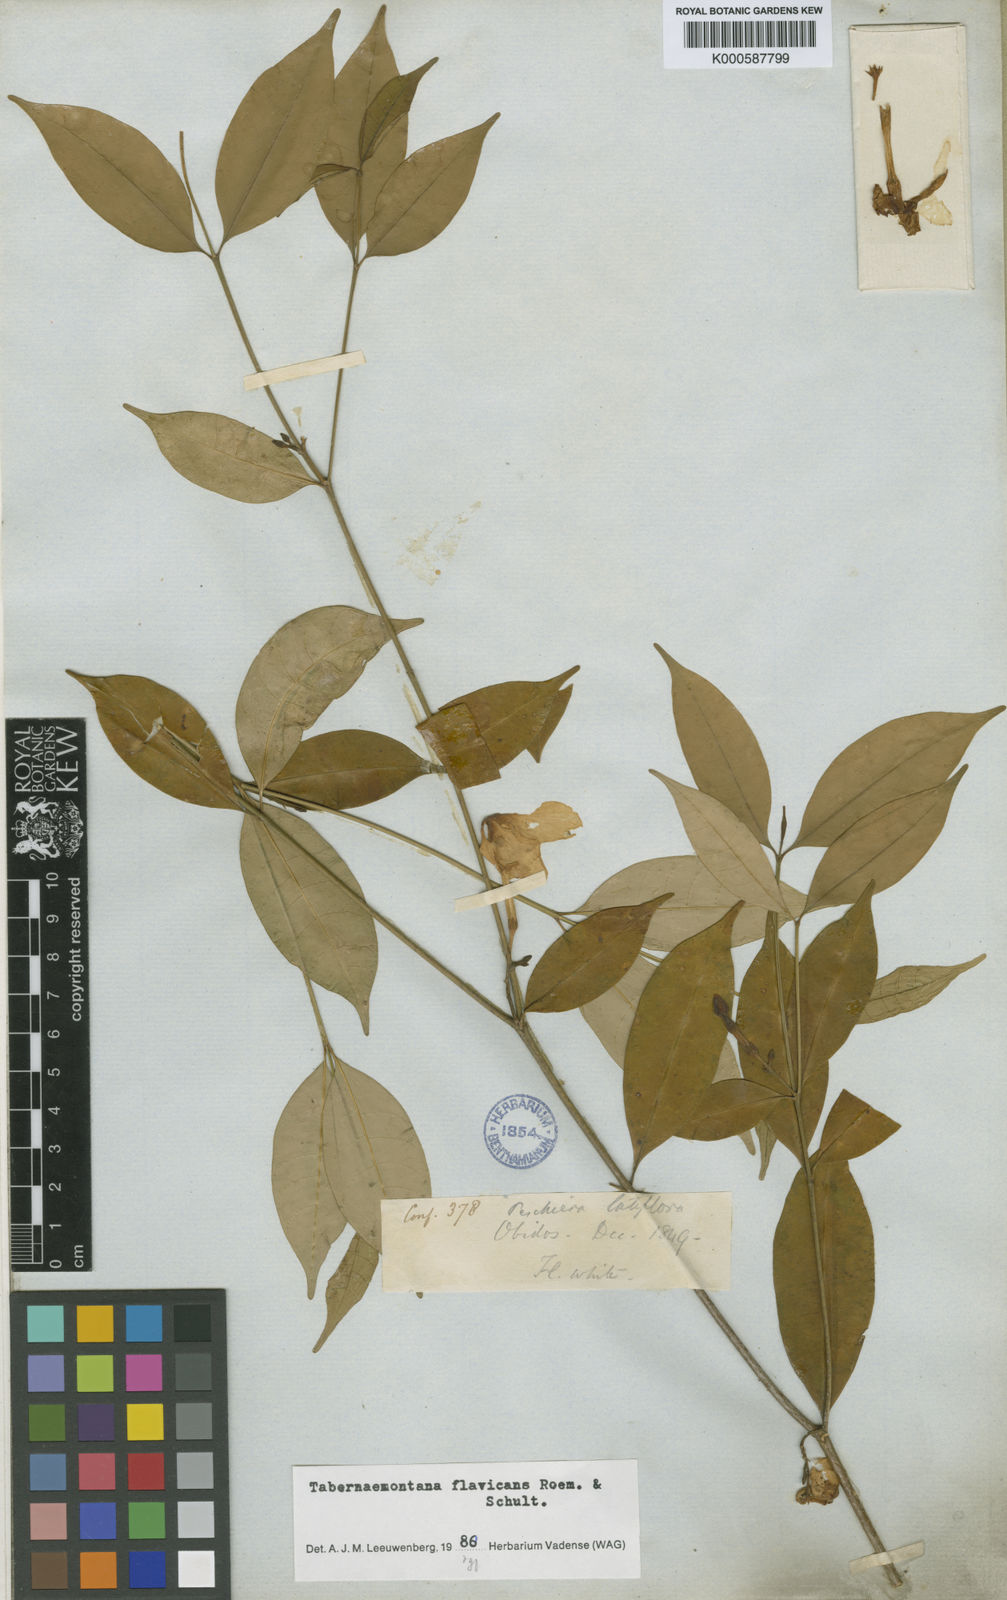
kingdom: Plantae
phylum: Tracheophyta
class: Magnoliopsida
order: Gentianales
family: Apocynaceae
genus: Tabernaemontana
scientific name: Tabernaemontana flavicans
